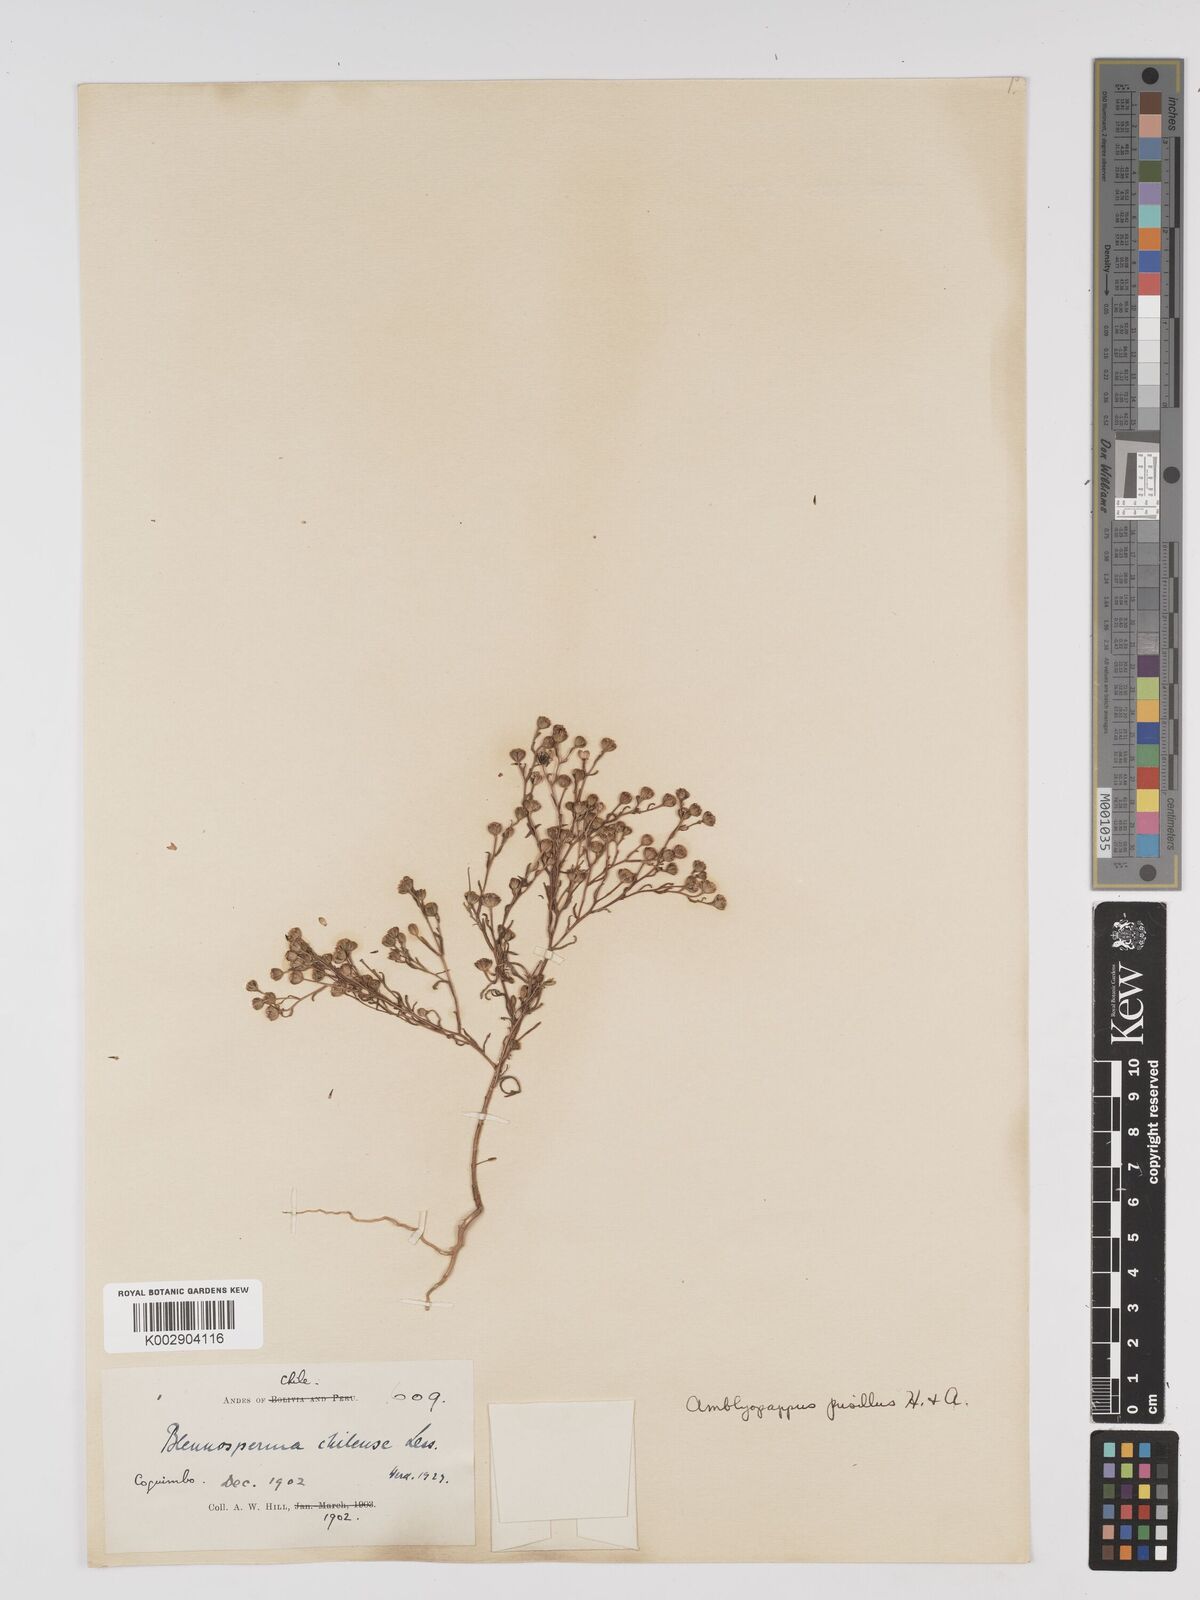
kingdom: Plantae
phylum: Tracheophyta
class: Magnoliopsida
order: Asterales
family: Asteraceae
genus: Amblyopappus
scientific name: Amblyopappus pusillus
